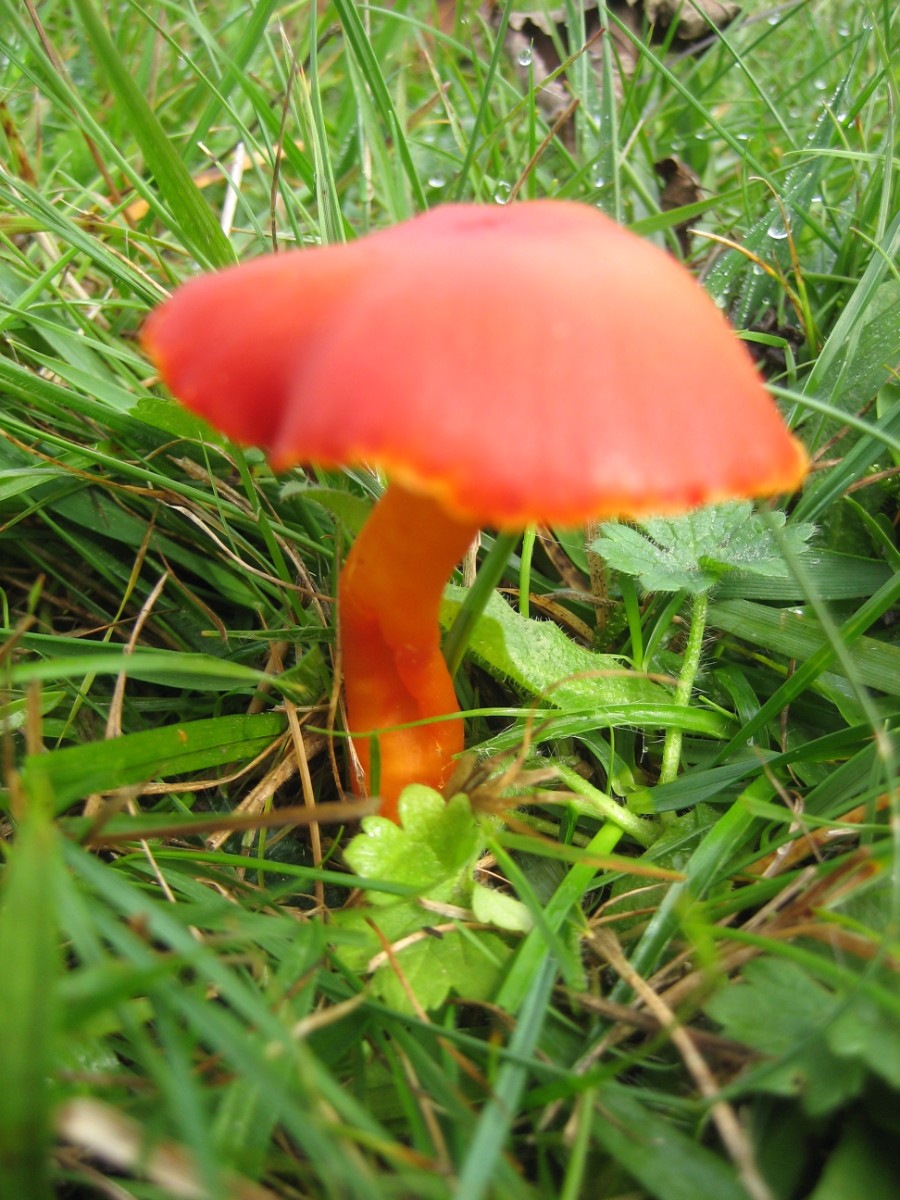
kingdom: Fungi
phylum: Basidiomycota
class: Agaricomycetes
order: Agaricales
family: Hygrophoraceae
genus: Hygrocybe
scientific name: Hygrocybe coccinea
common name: cinnober-vokshat
